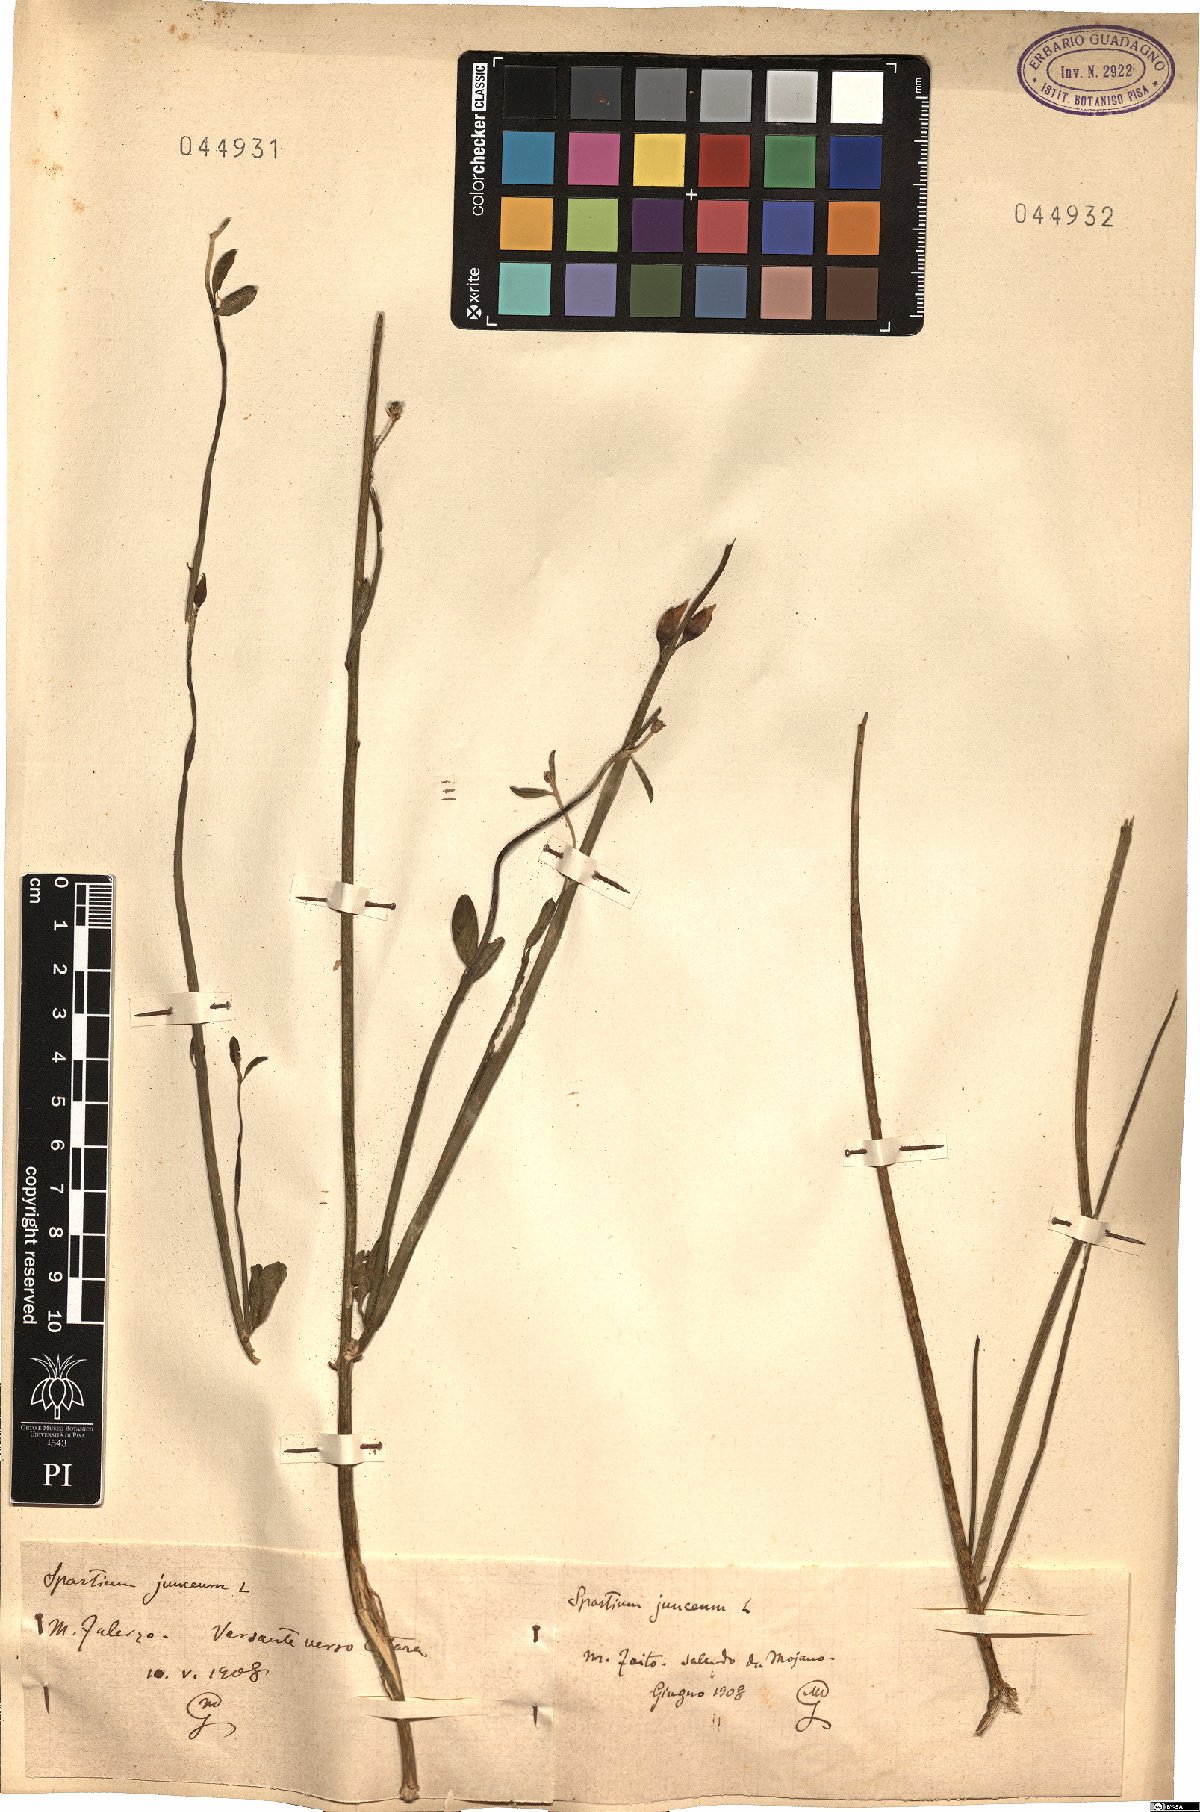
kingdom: Plantae
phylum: Tracheophyta
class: Magnoliopsida
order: Fabales
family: Fabaceae
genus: Spartium
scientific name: Spartium junceum
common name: Spanish broom
